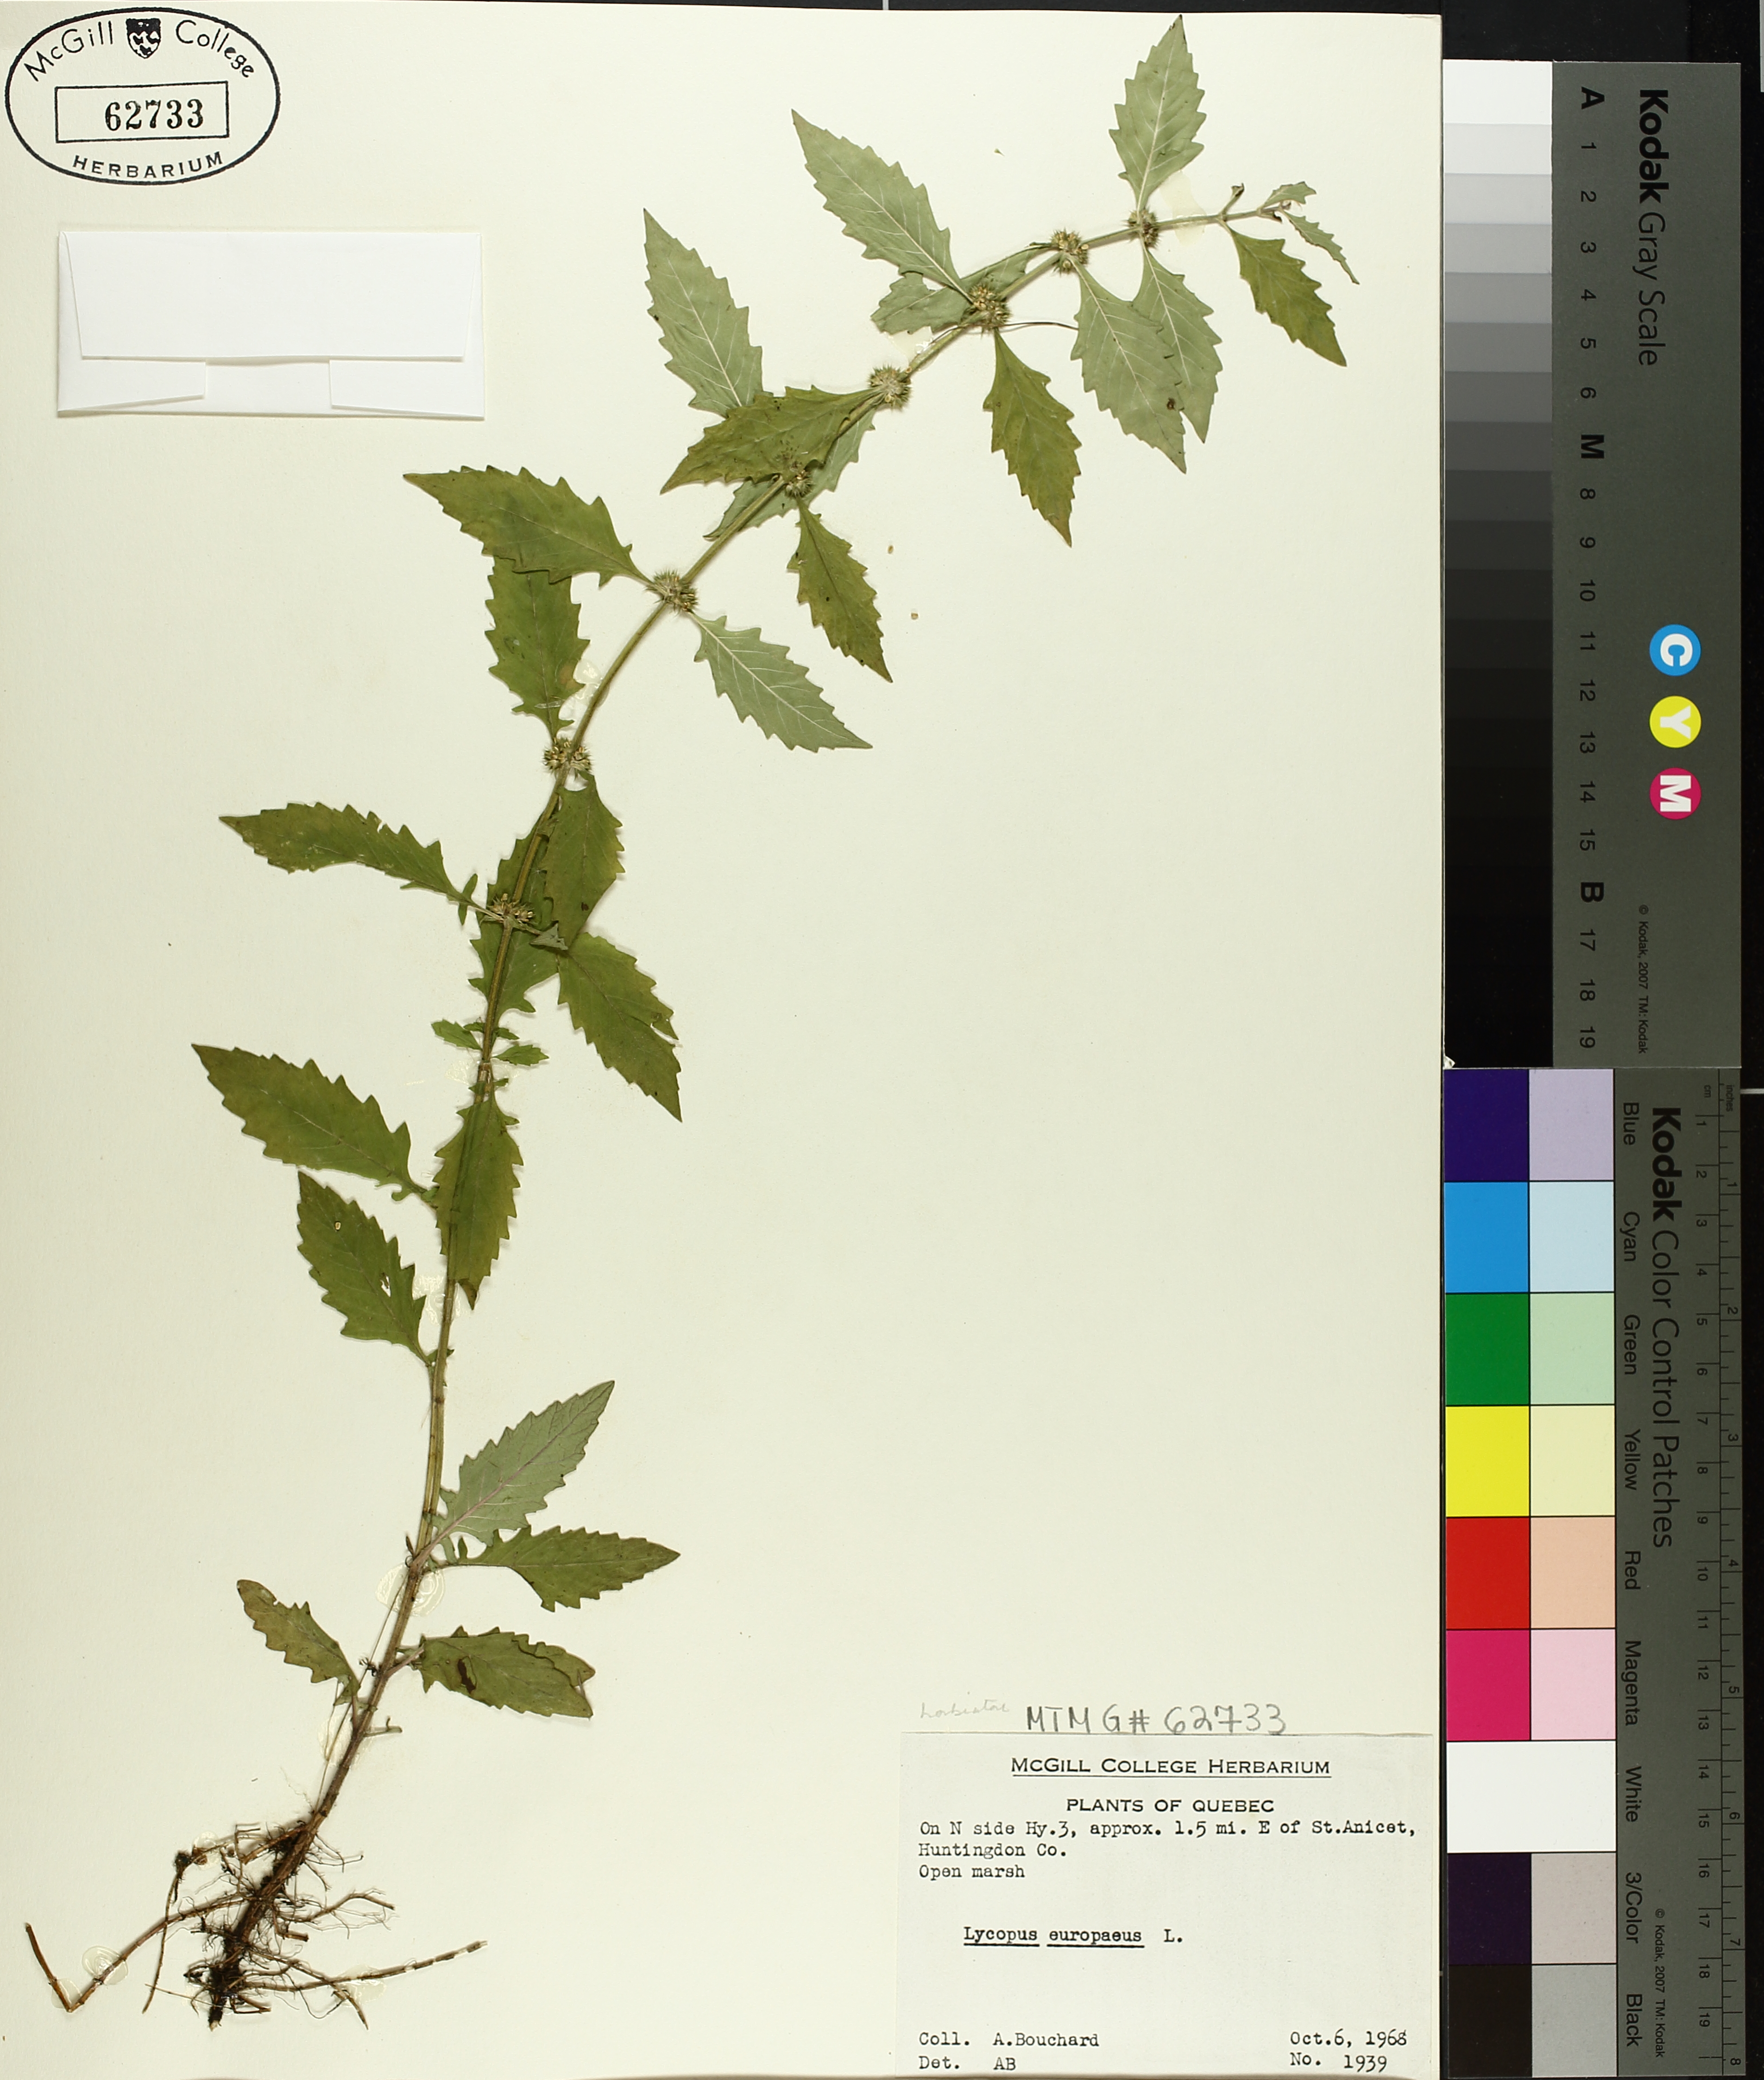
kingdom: Plantae
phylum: Tracheophyta
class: Magnoliopsida
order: Lamiales
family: Lamiaceae
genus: Lycopus
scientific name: Lycopus europaeus
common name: European bugleweed
